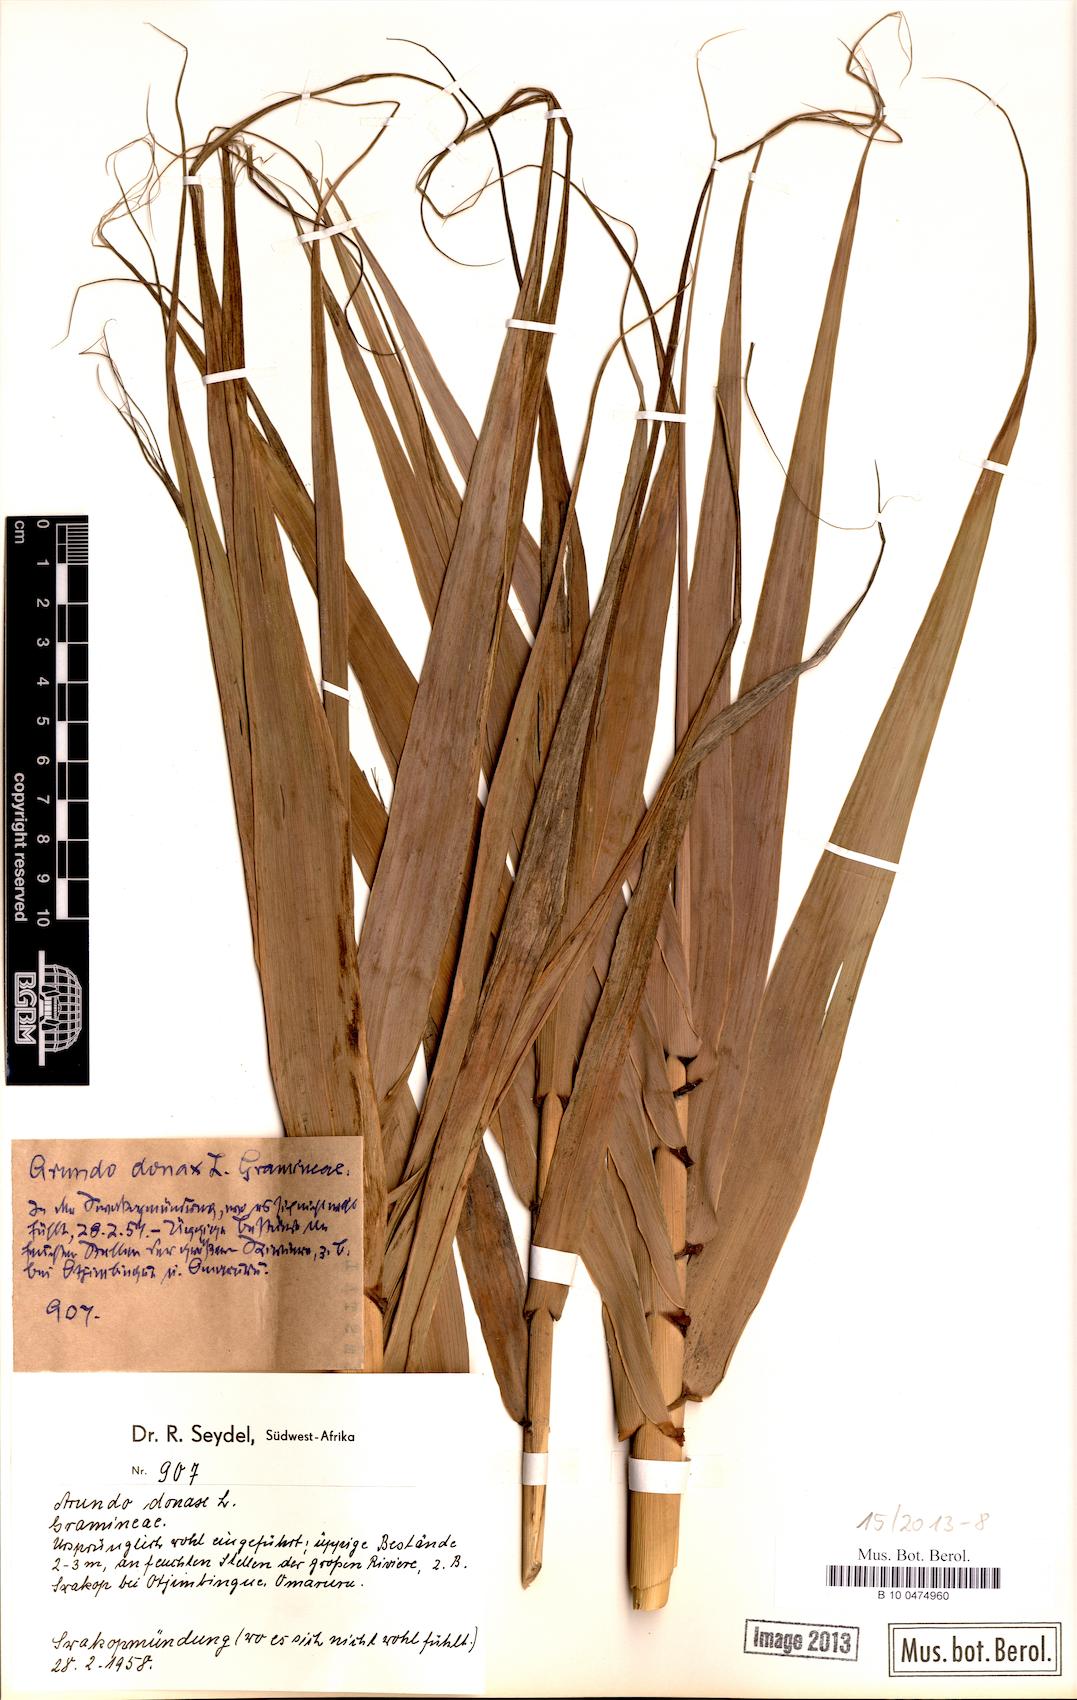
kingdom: Plantae
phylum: Tracheophyta
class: Liliopsida
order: Poales
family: Poaceae
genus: Arundo
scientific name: Arundo donax
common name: Giant reed
